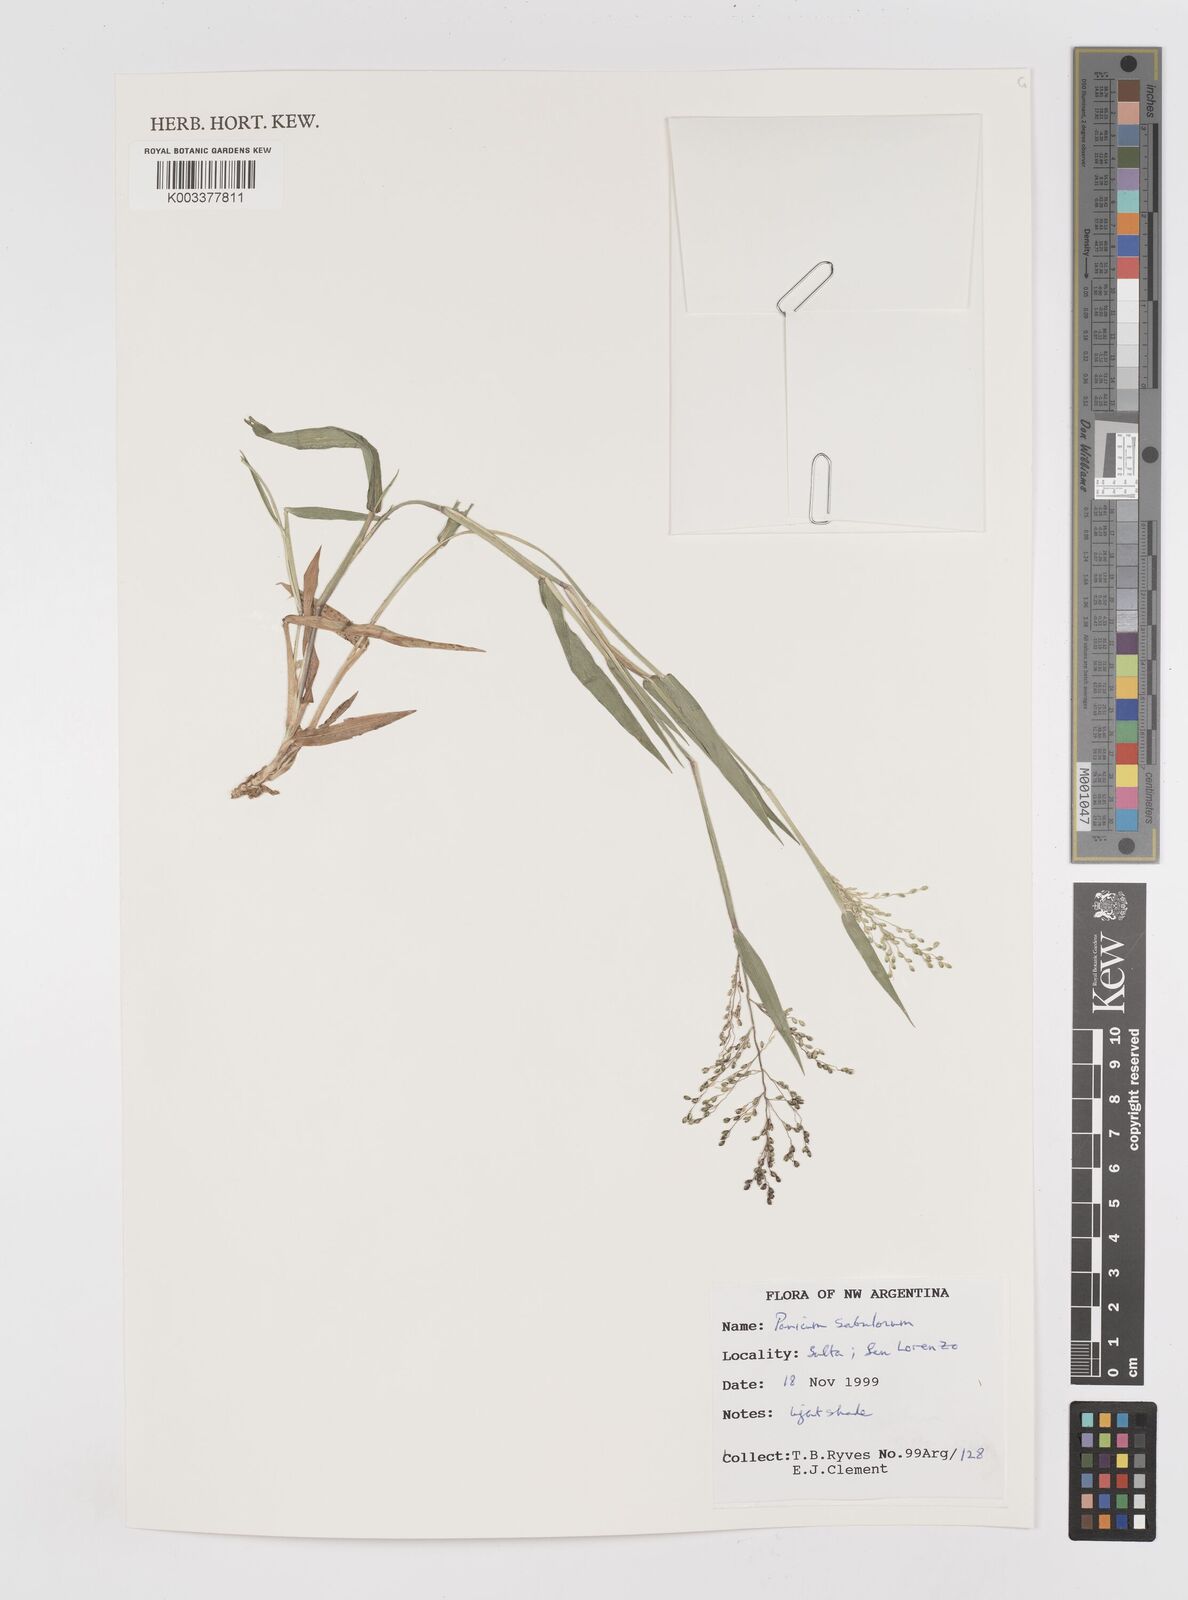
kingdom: Plantae
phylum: Tracheophyta
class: Liliopsida
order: Poales
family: Poaceae
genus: Dichanthelium
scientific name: Dichanthelium sabulorum
